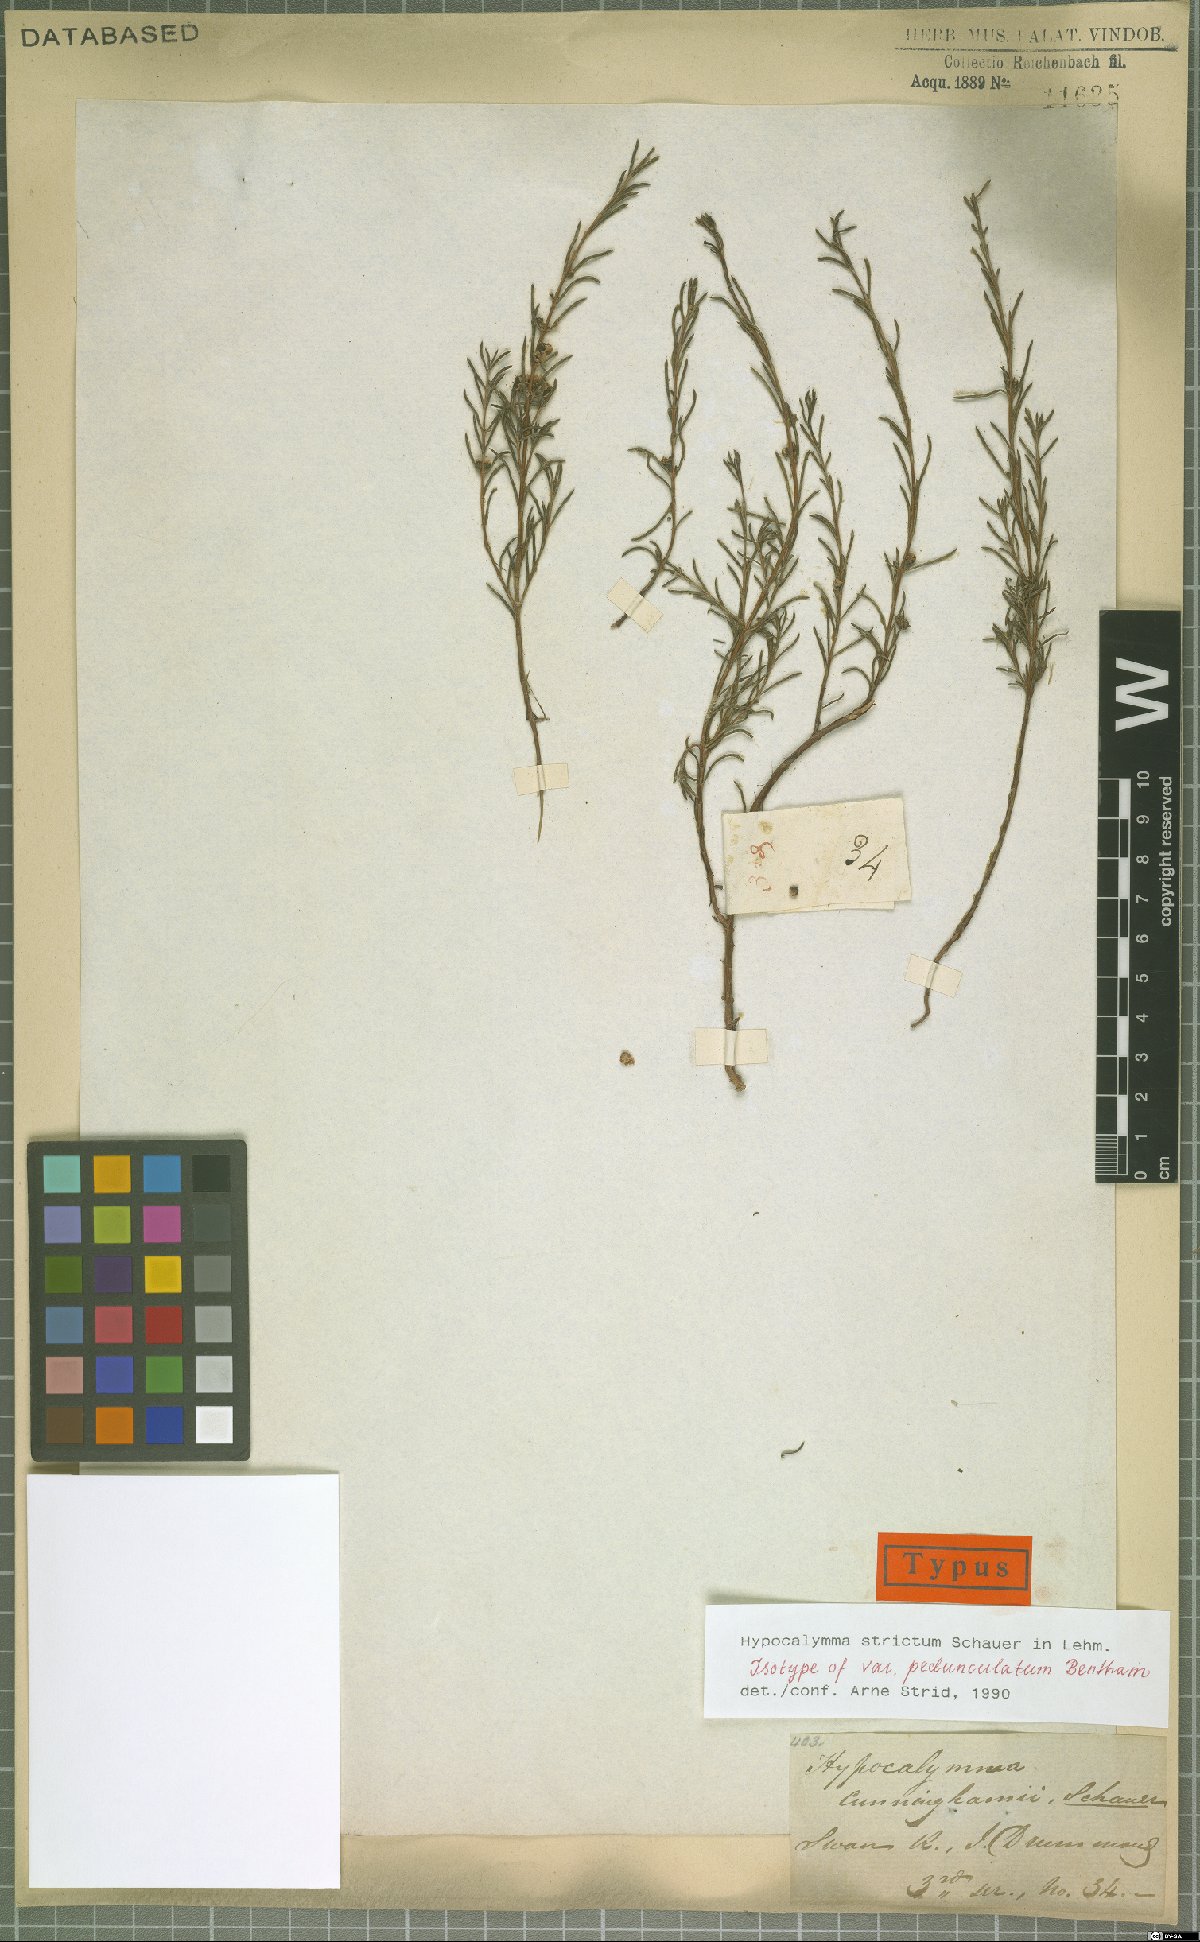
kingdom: Plantae
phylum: Tracheophyta
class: Magnoliopsida
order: Myrtales
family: Myrtaceae
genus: Hypocalymma
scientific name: Hypocalymma strictum
